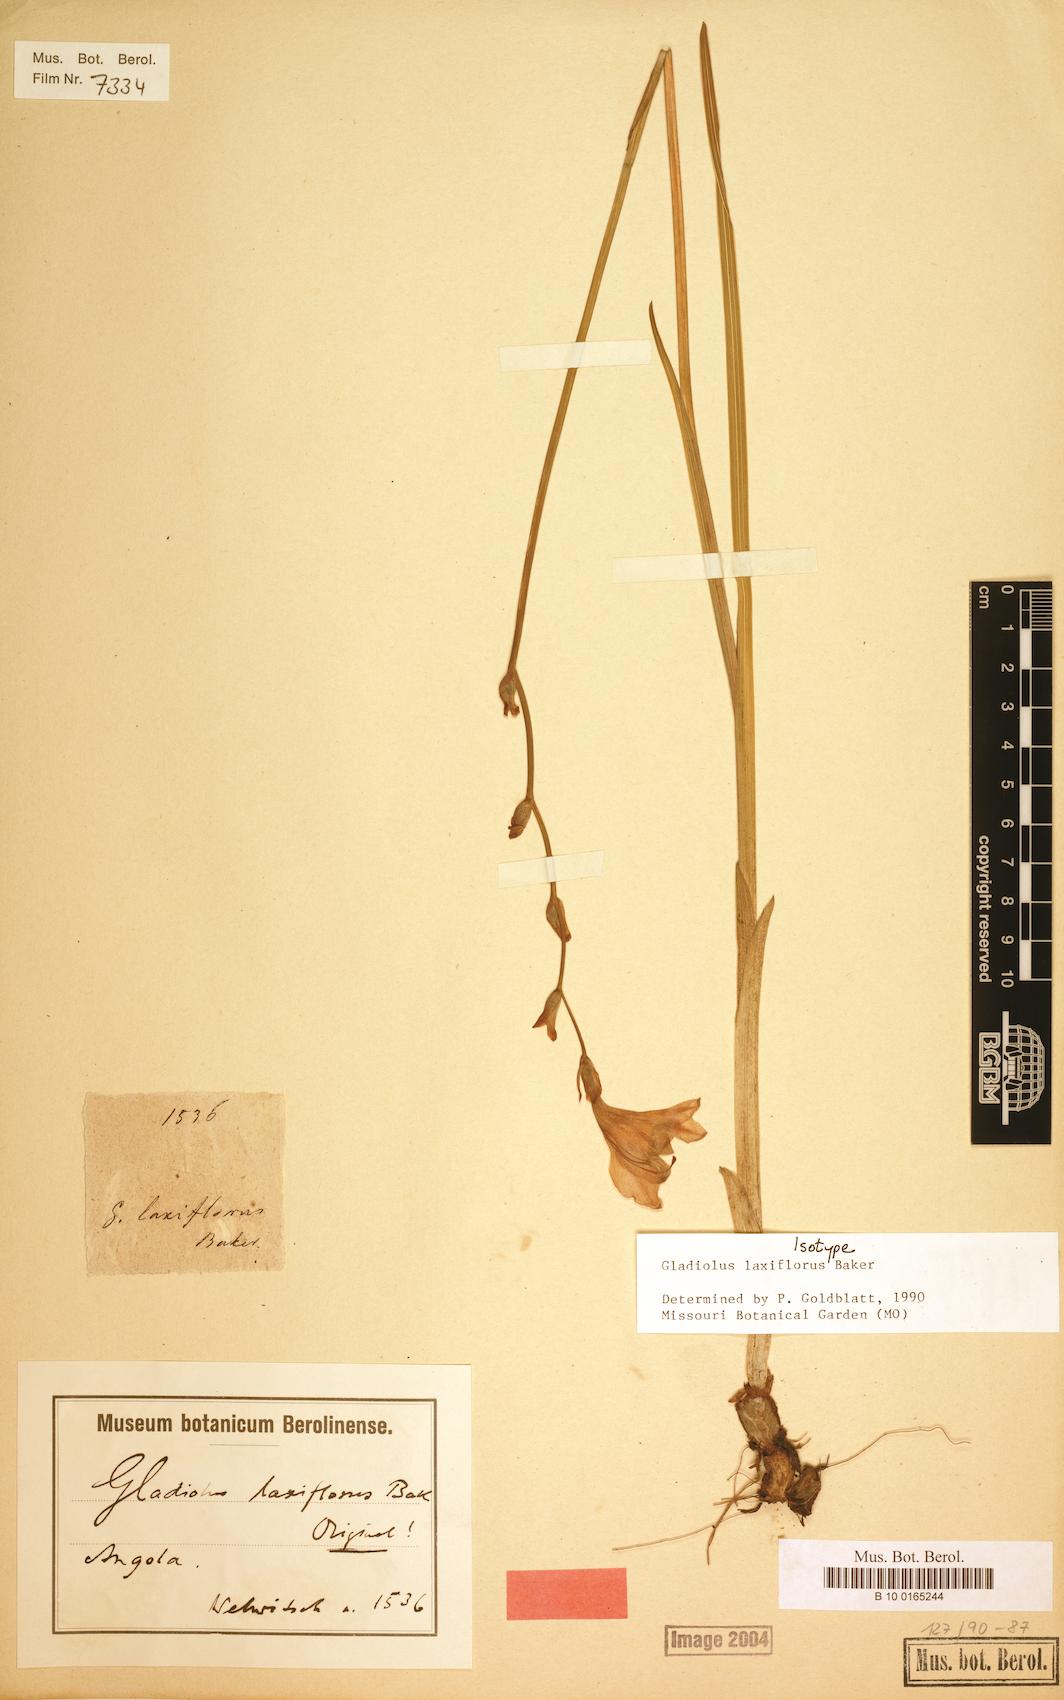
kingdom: Plantae
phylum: Tracheophyta
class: Liliopsida
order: Asparagales
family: Iridaceae
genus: Gladiolus
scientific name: Gladiolus laxiflorus
